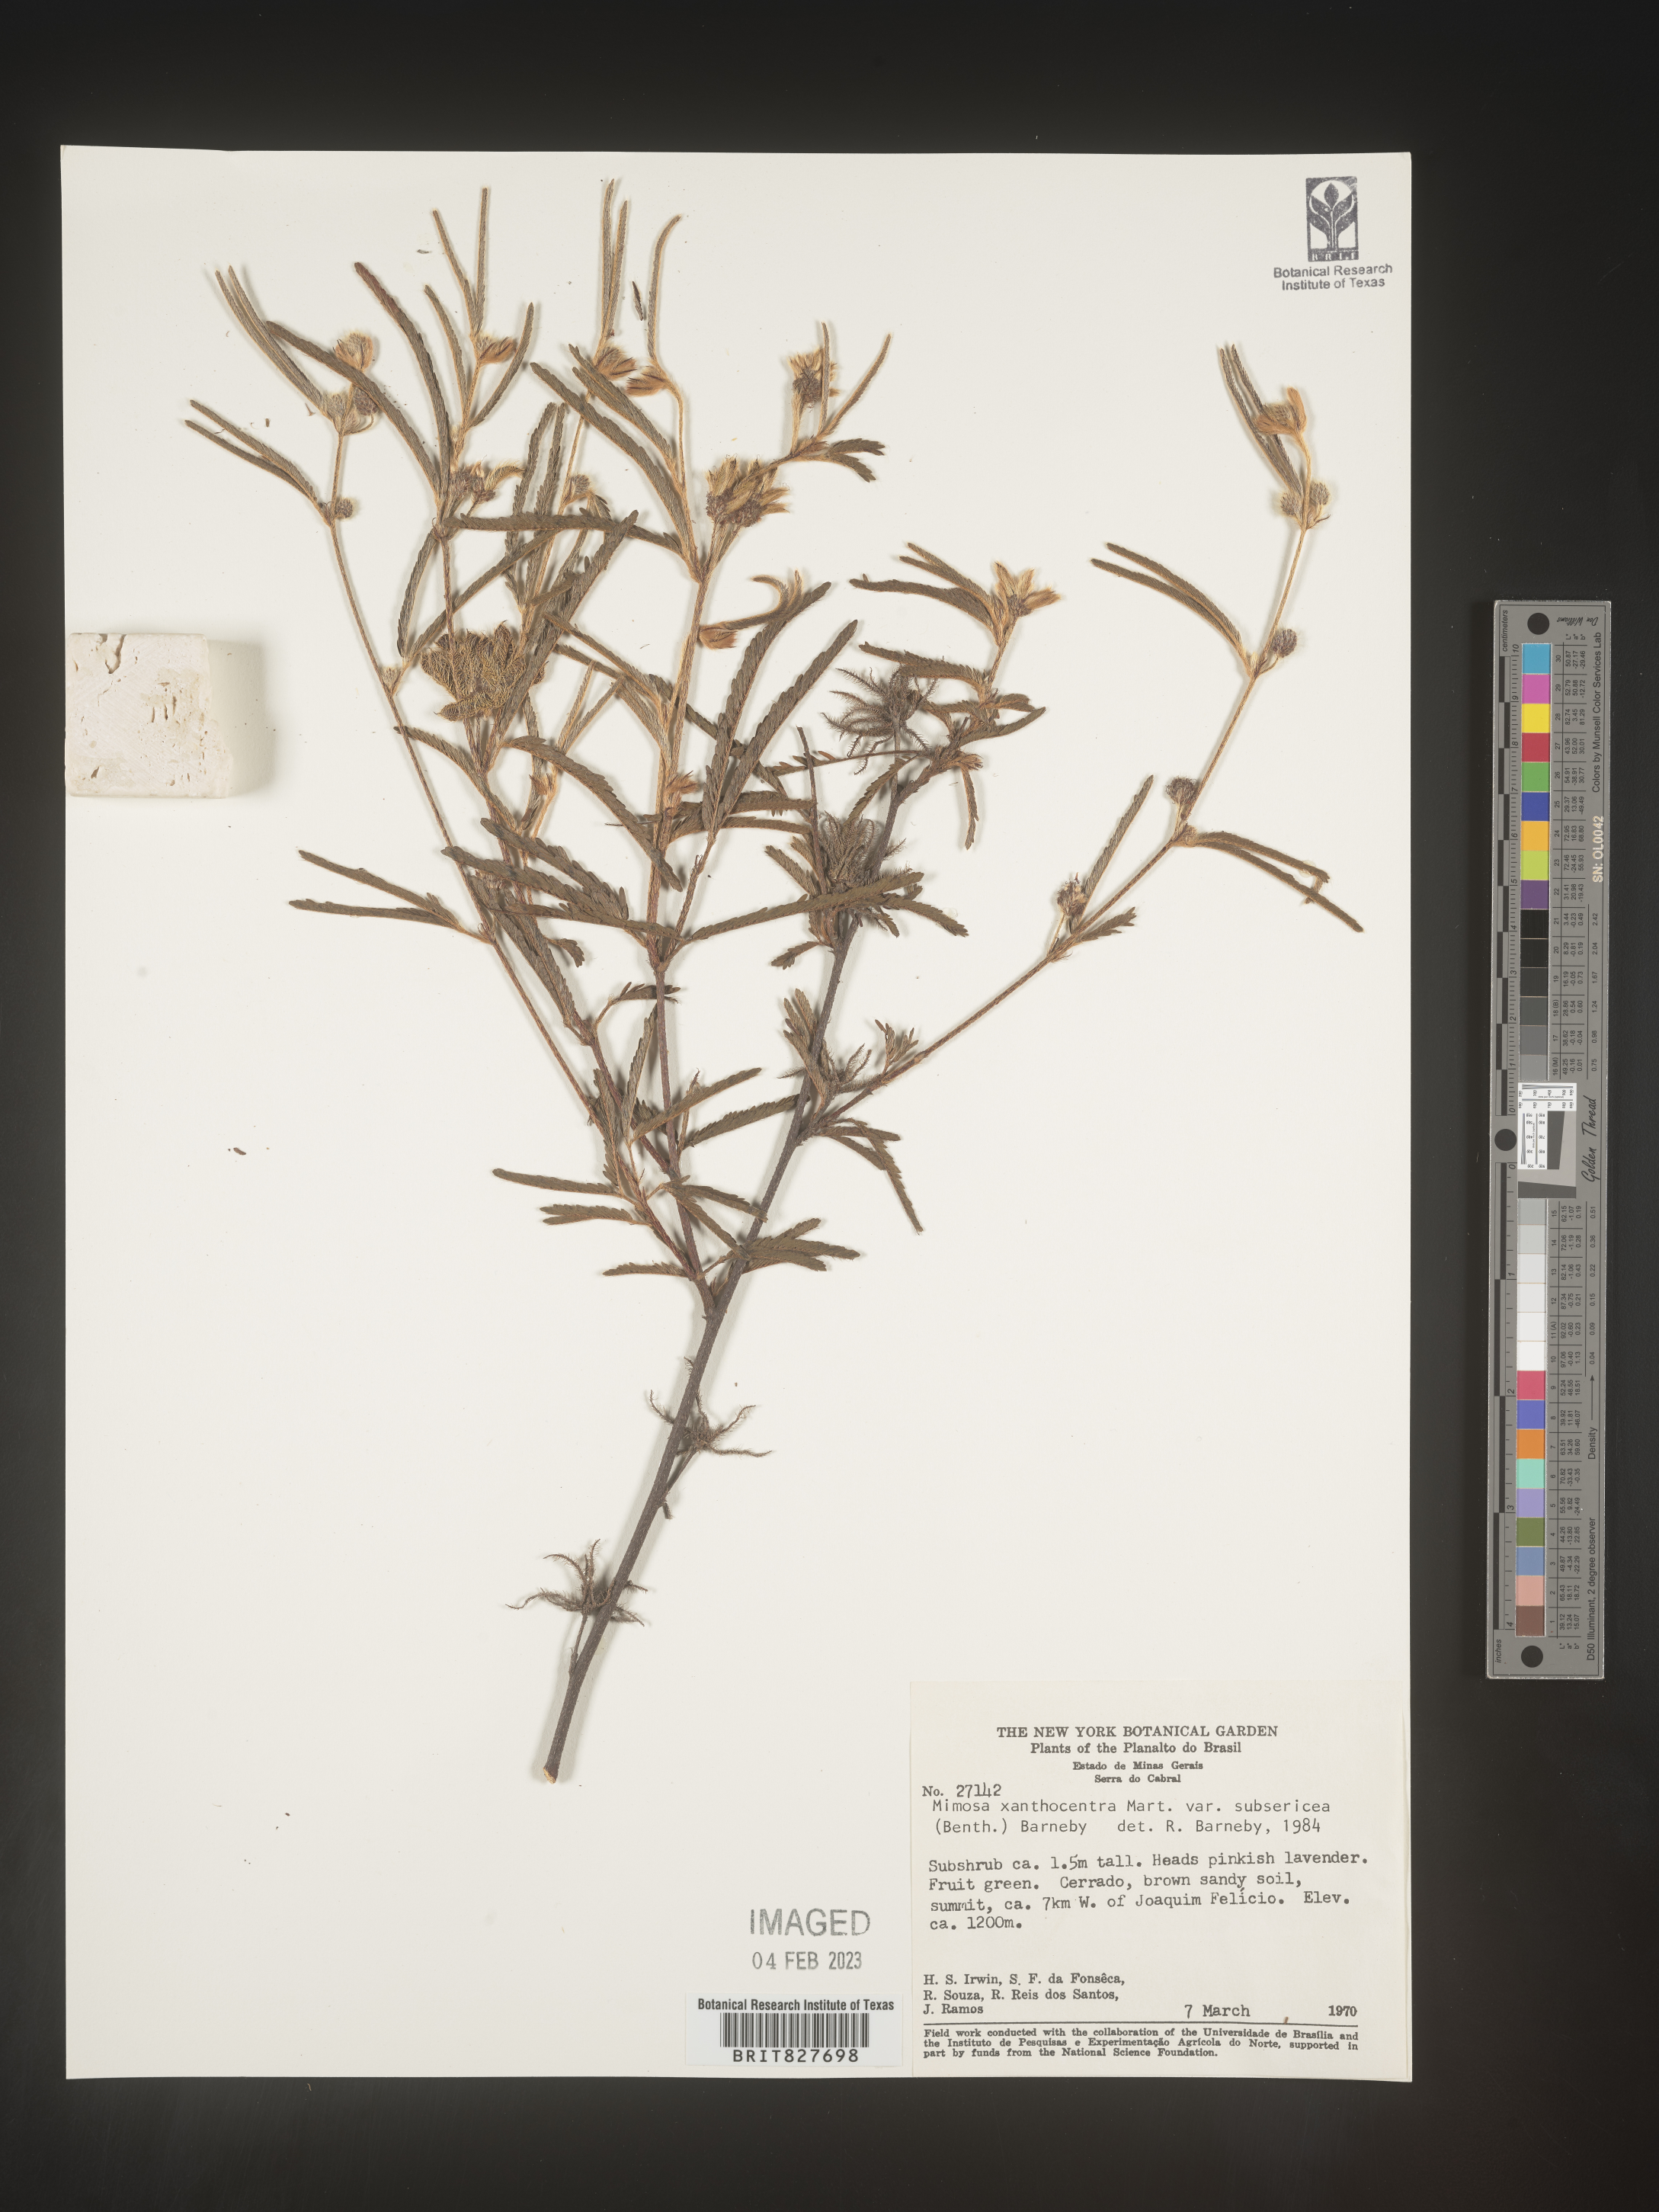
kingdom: Plantae
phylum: Tracheophyta
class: Magnoliopsida
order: Fabales
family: Fabaceae
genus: Mimosa
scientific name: Mimosa
